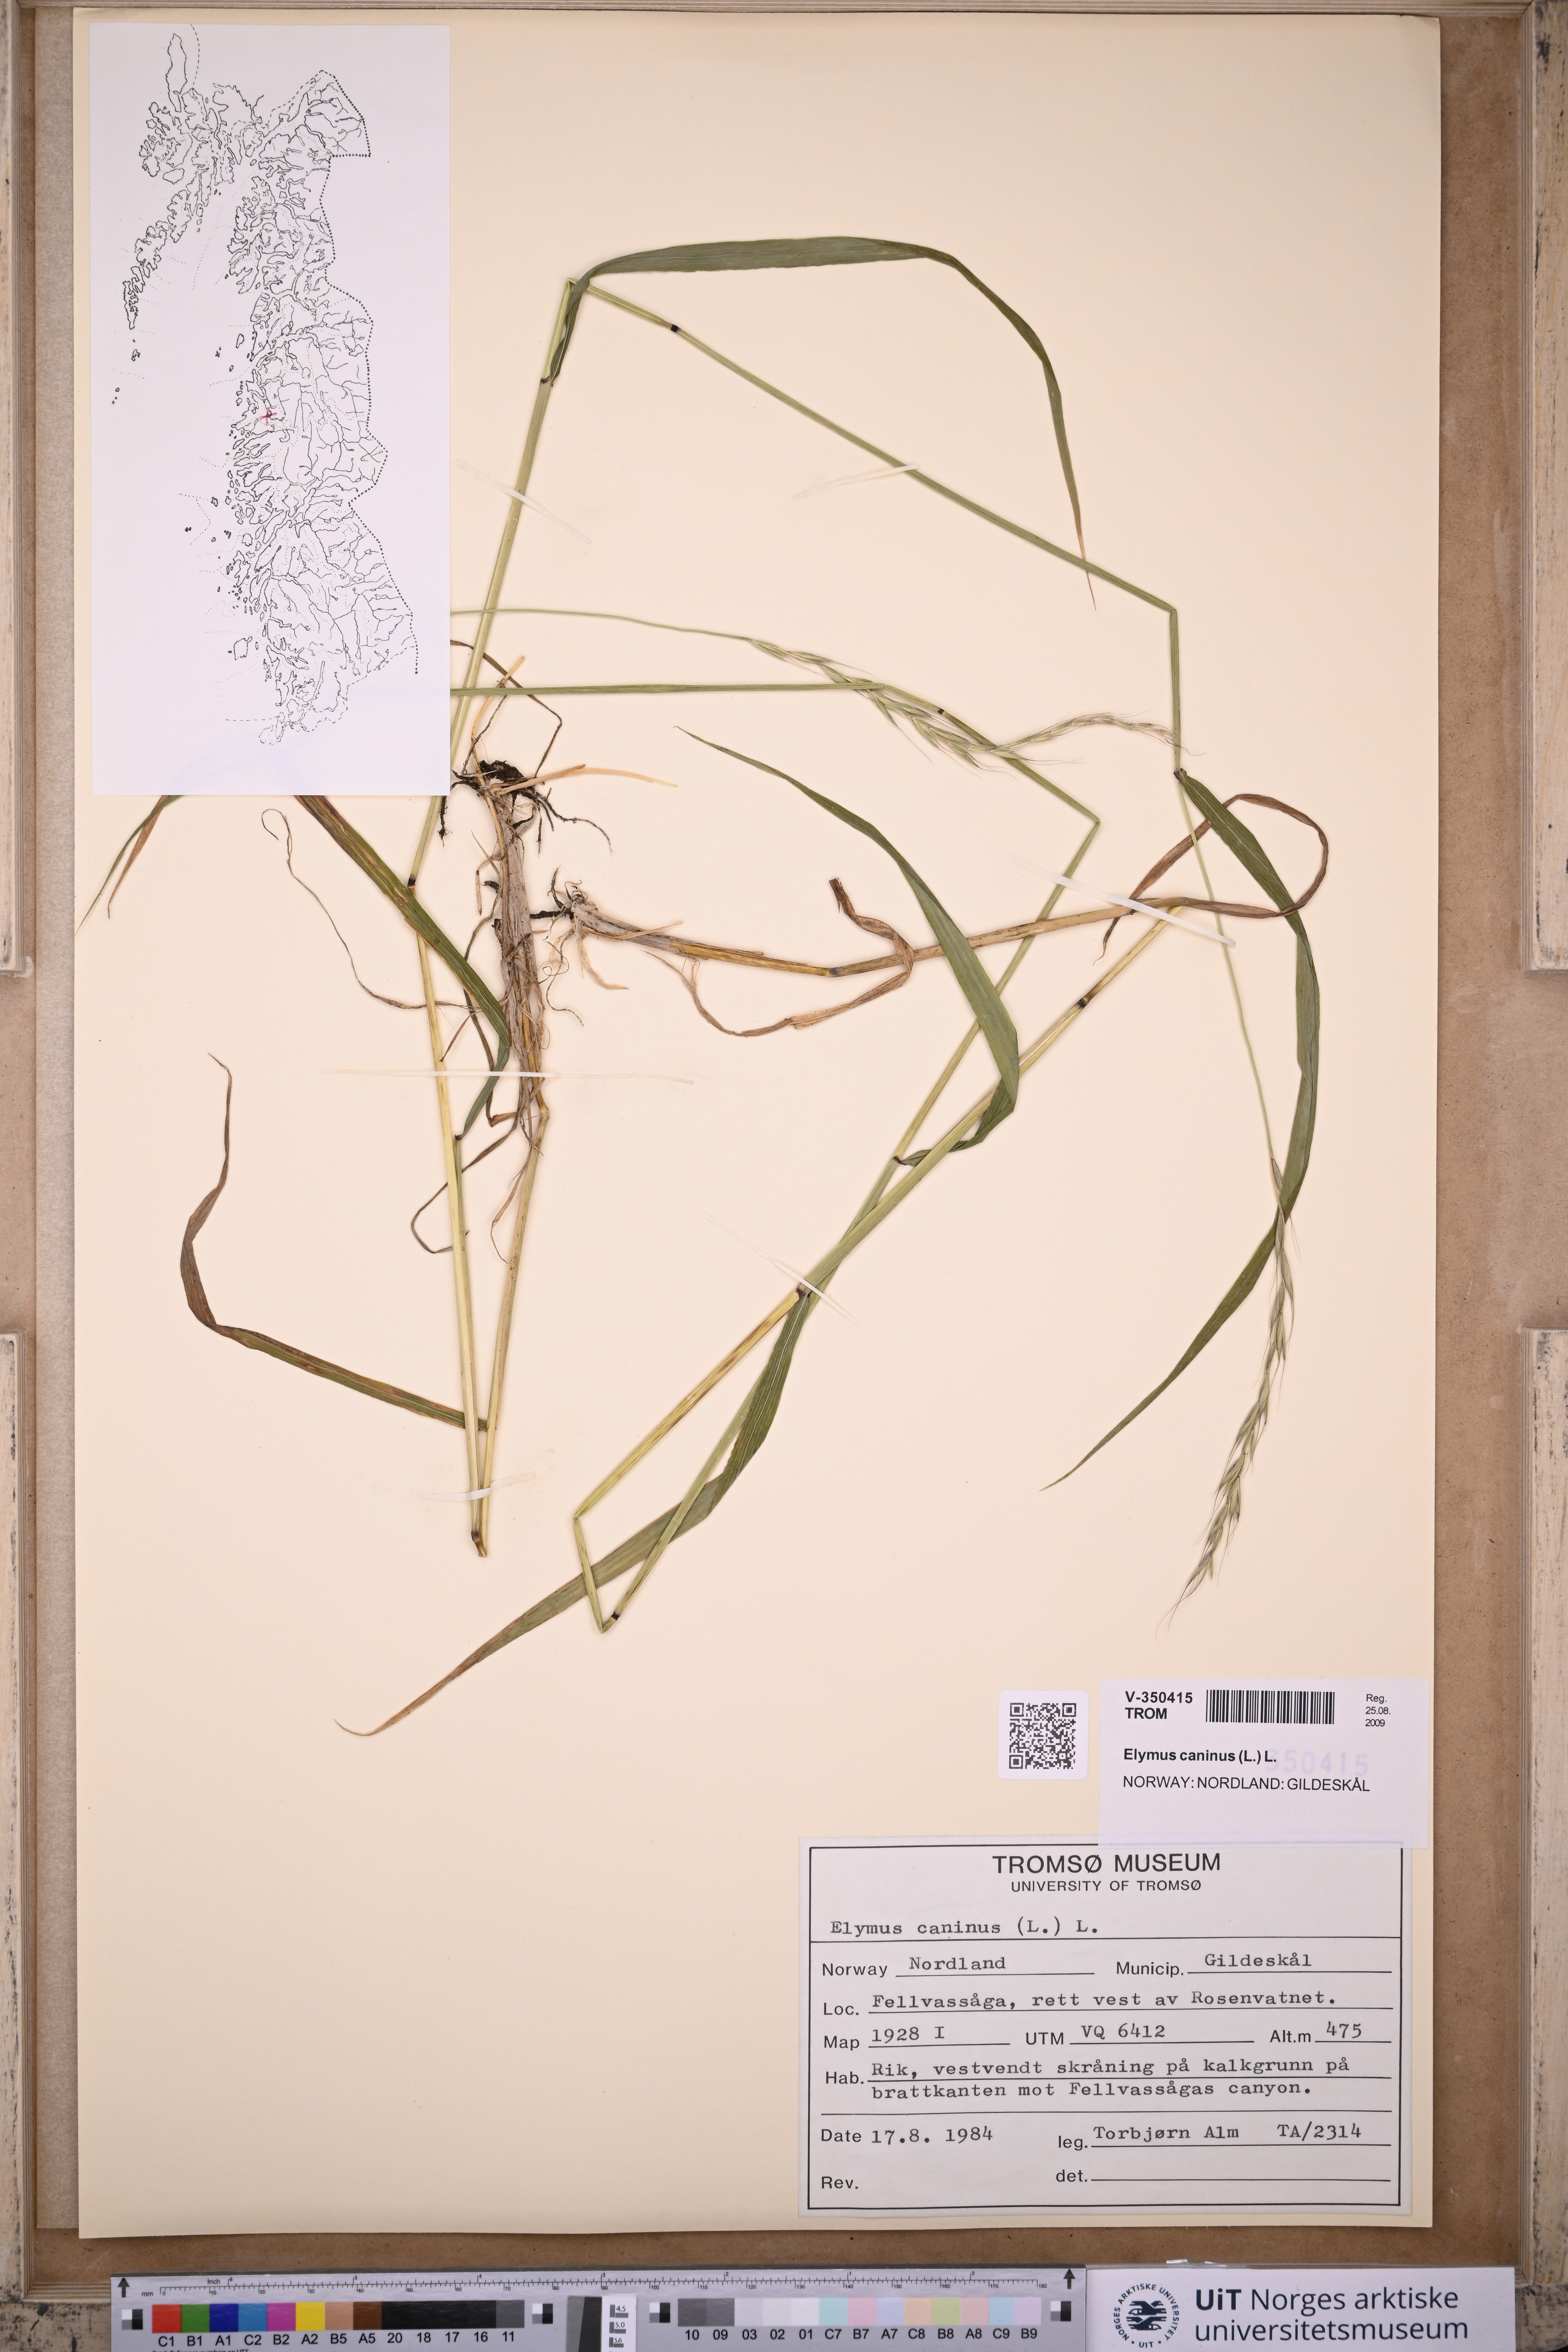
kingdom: Plantae
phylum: Tracheophyta
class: Liliopsida
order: Poales
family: Poaceae
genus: Elymus
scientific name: Elymus caninus
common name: Bearded couch
